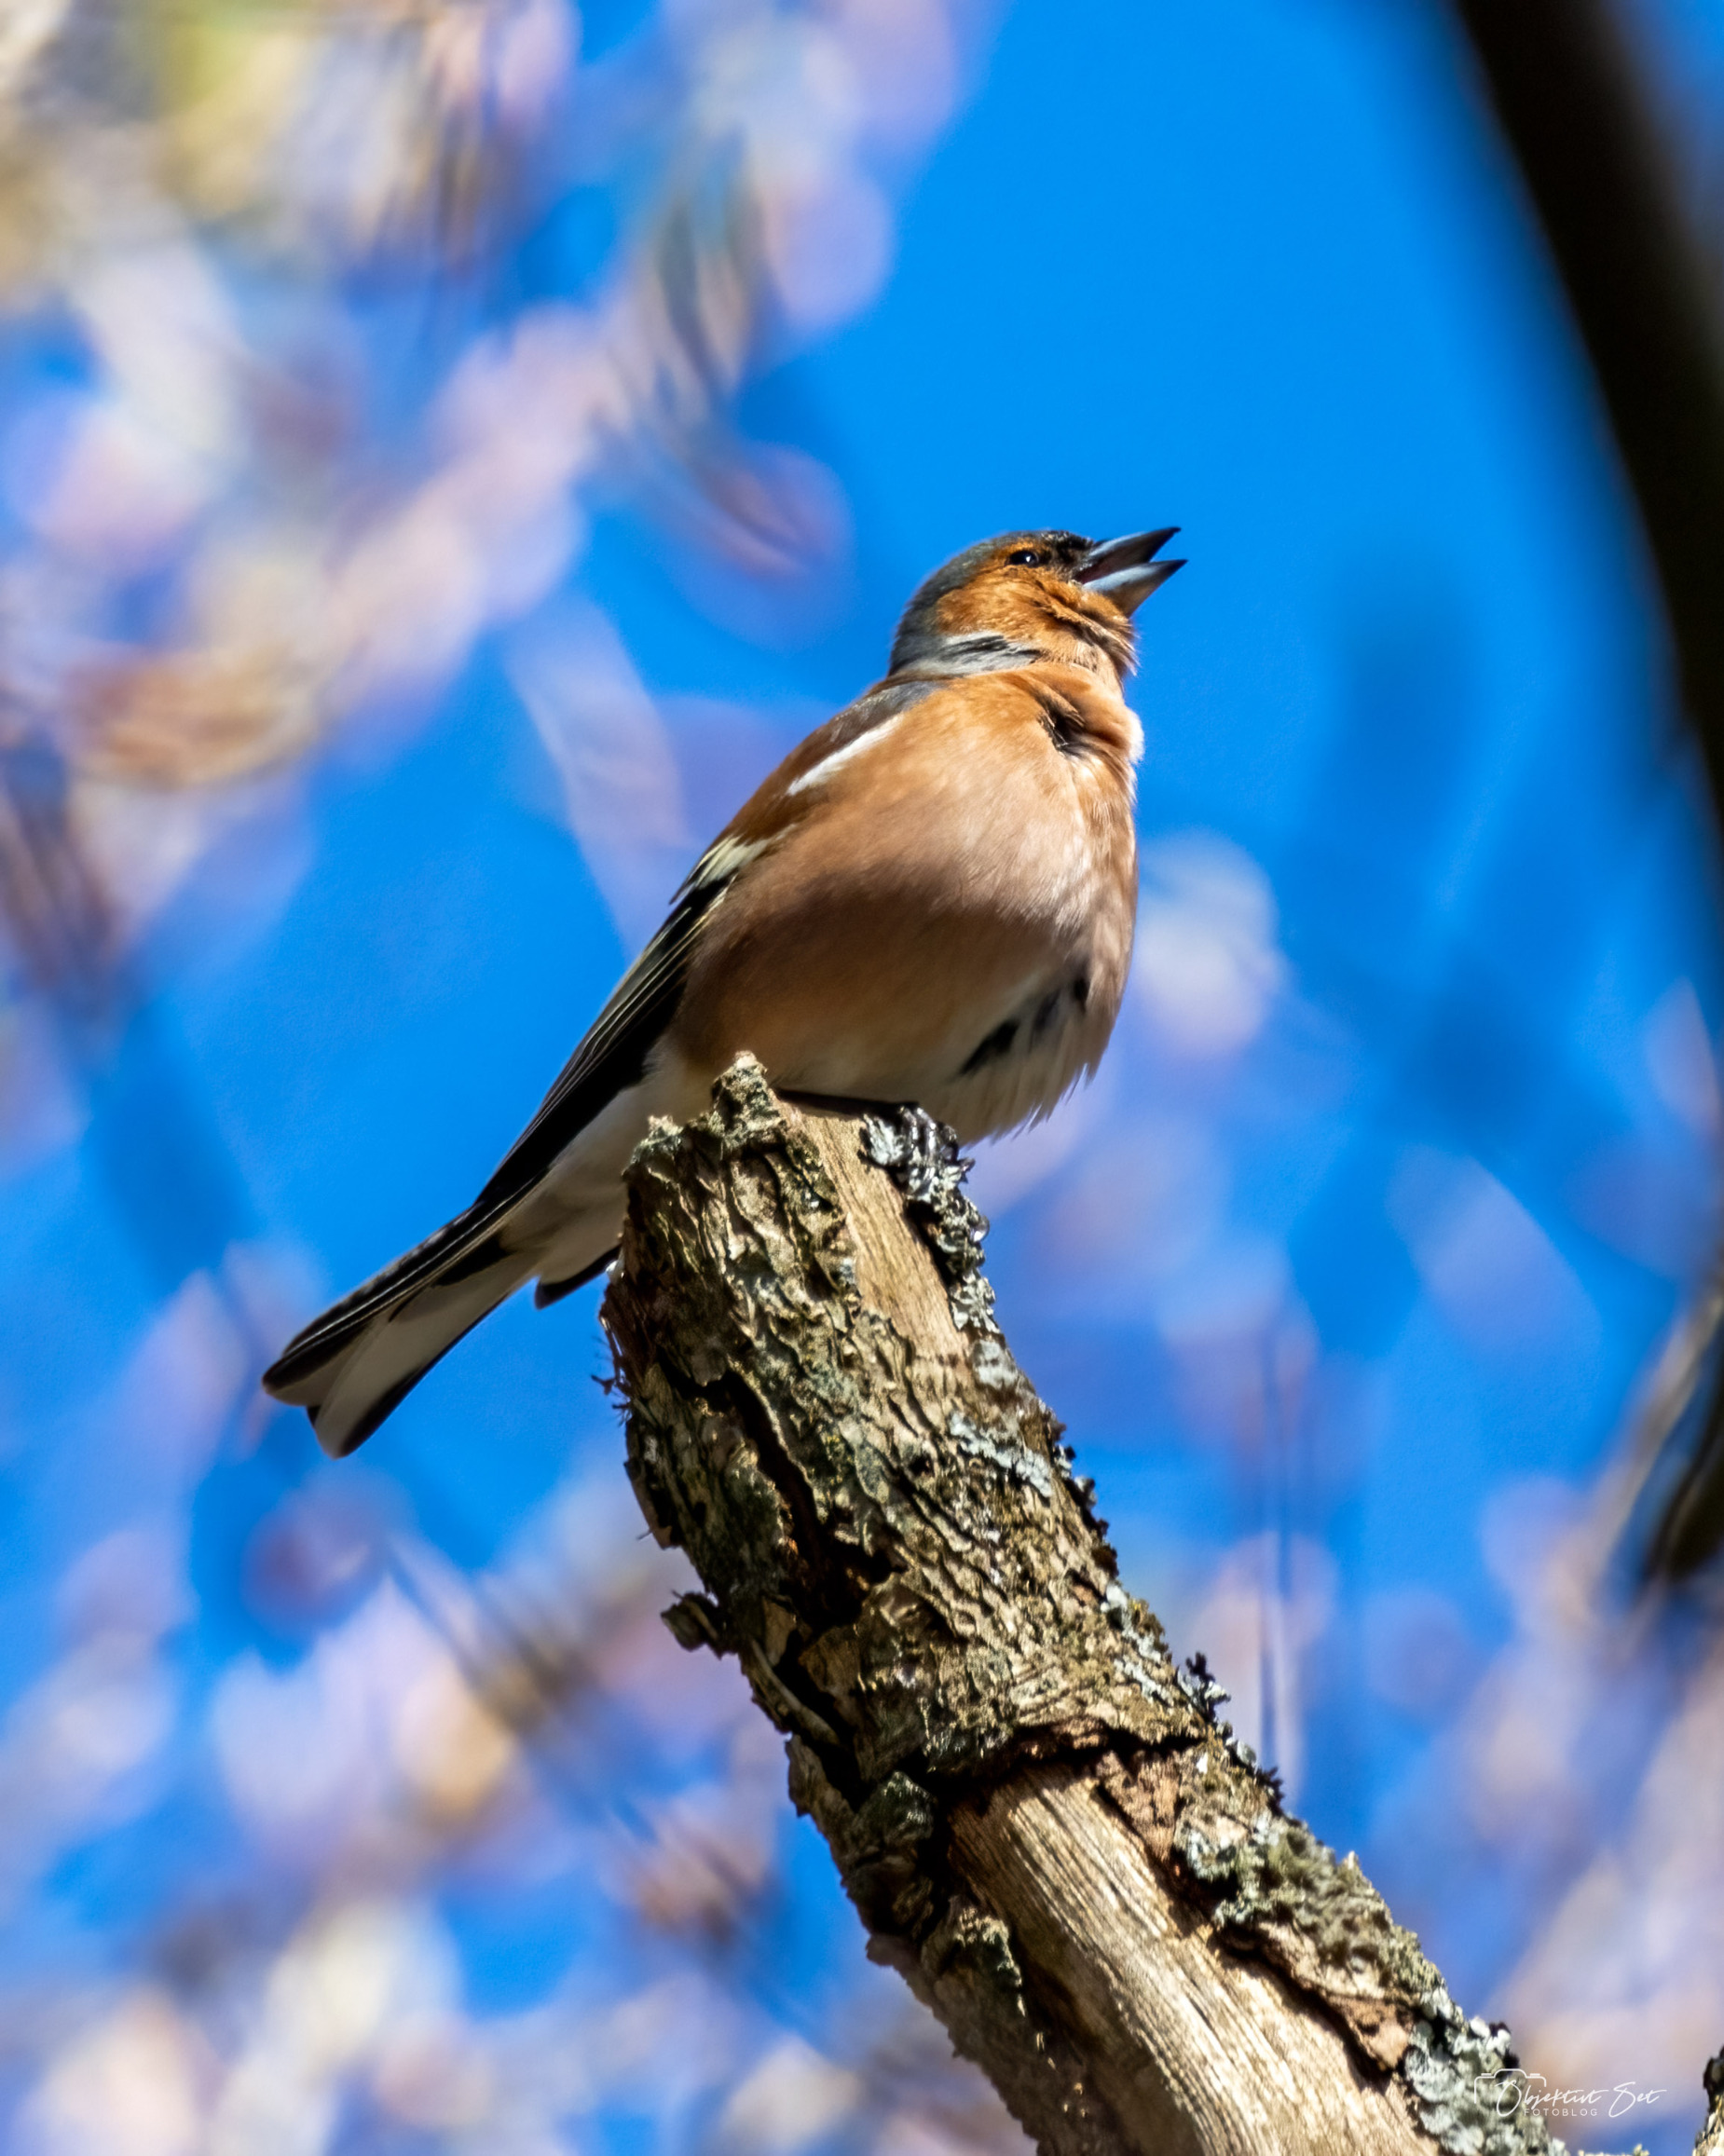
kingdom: Animalia
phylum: Chordata
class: Aves
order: Passeriformes
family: Fringillidae
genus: Fringilla
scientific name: Fringilla coelebs
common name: Bogfinke
